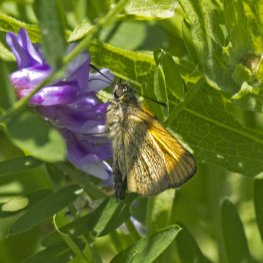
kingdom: Animalia
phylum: Arthropoda
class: Insecta
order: Lepidoptera
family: Hesperiidae
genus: Thymelicus
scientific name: Thymelicus lineola
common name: European Skipper
